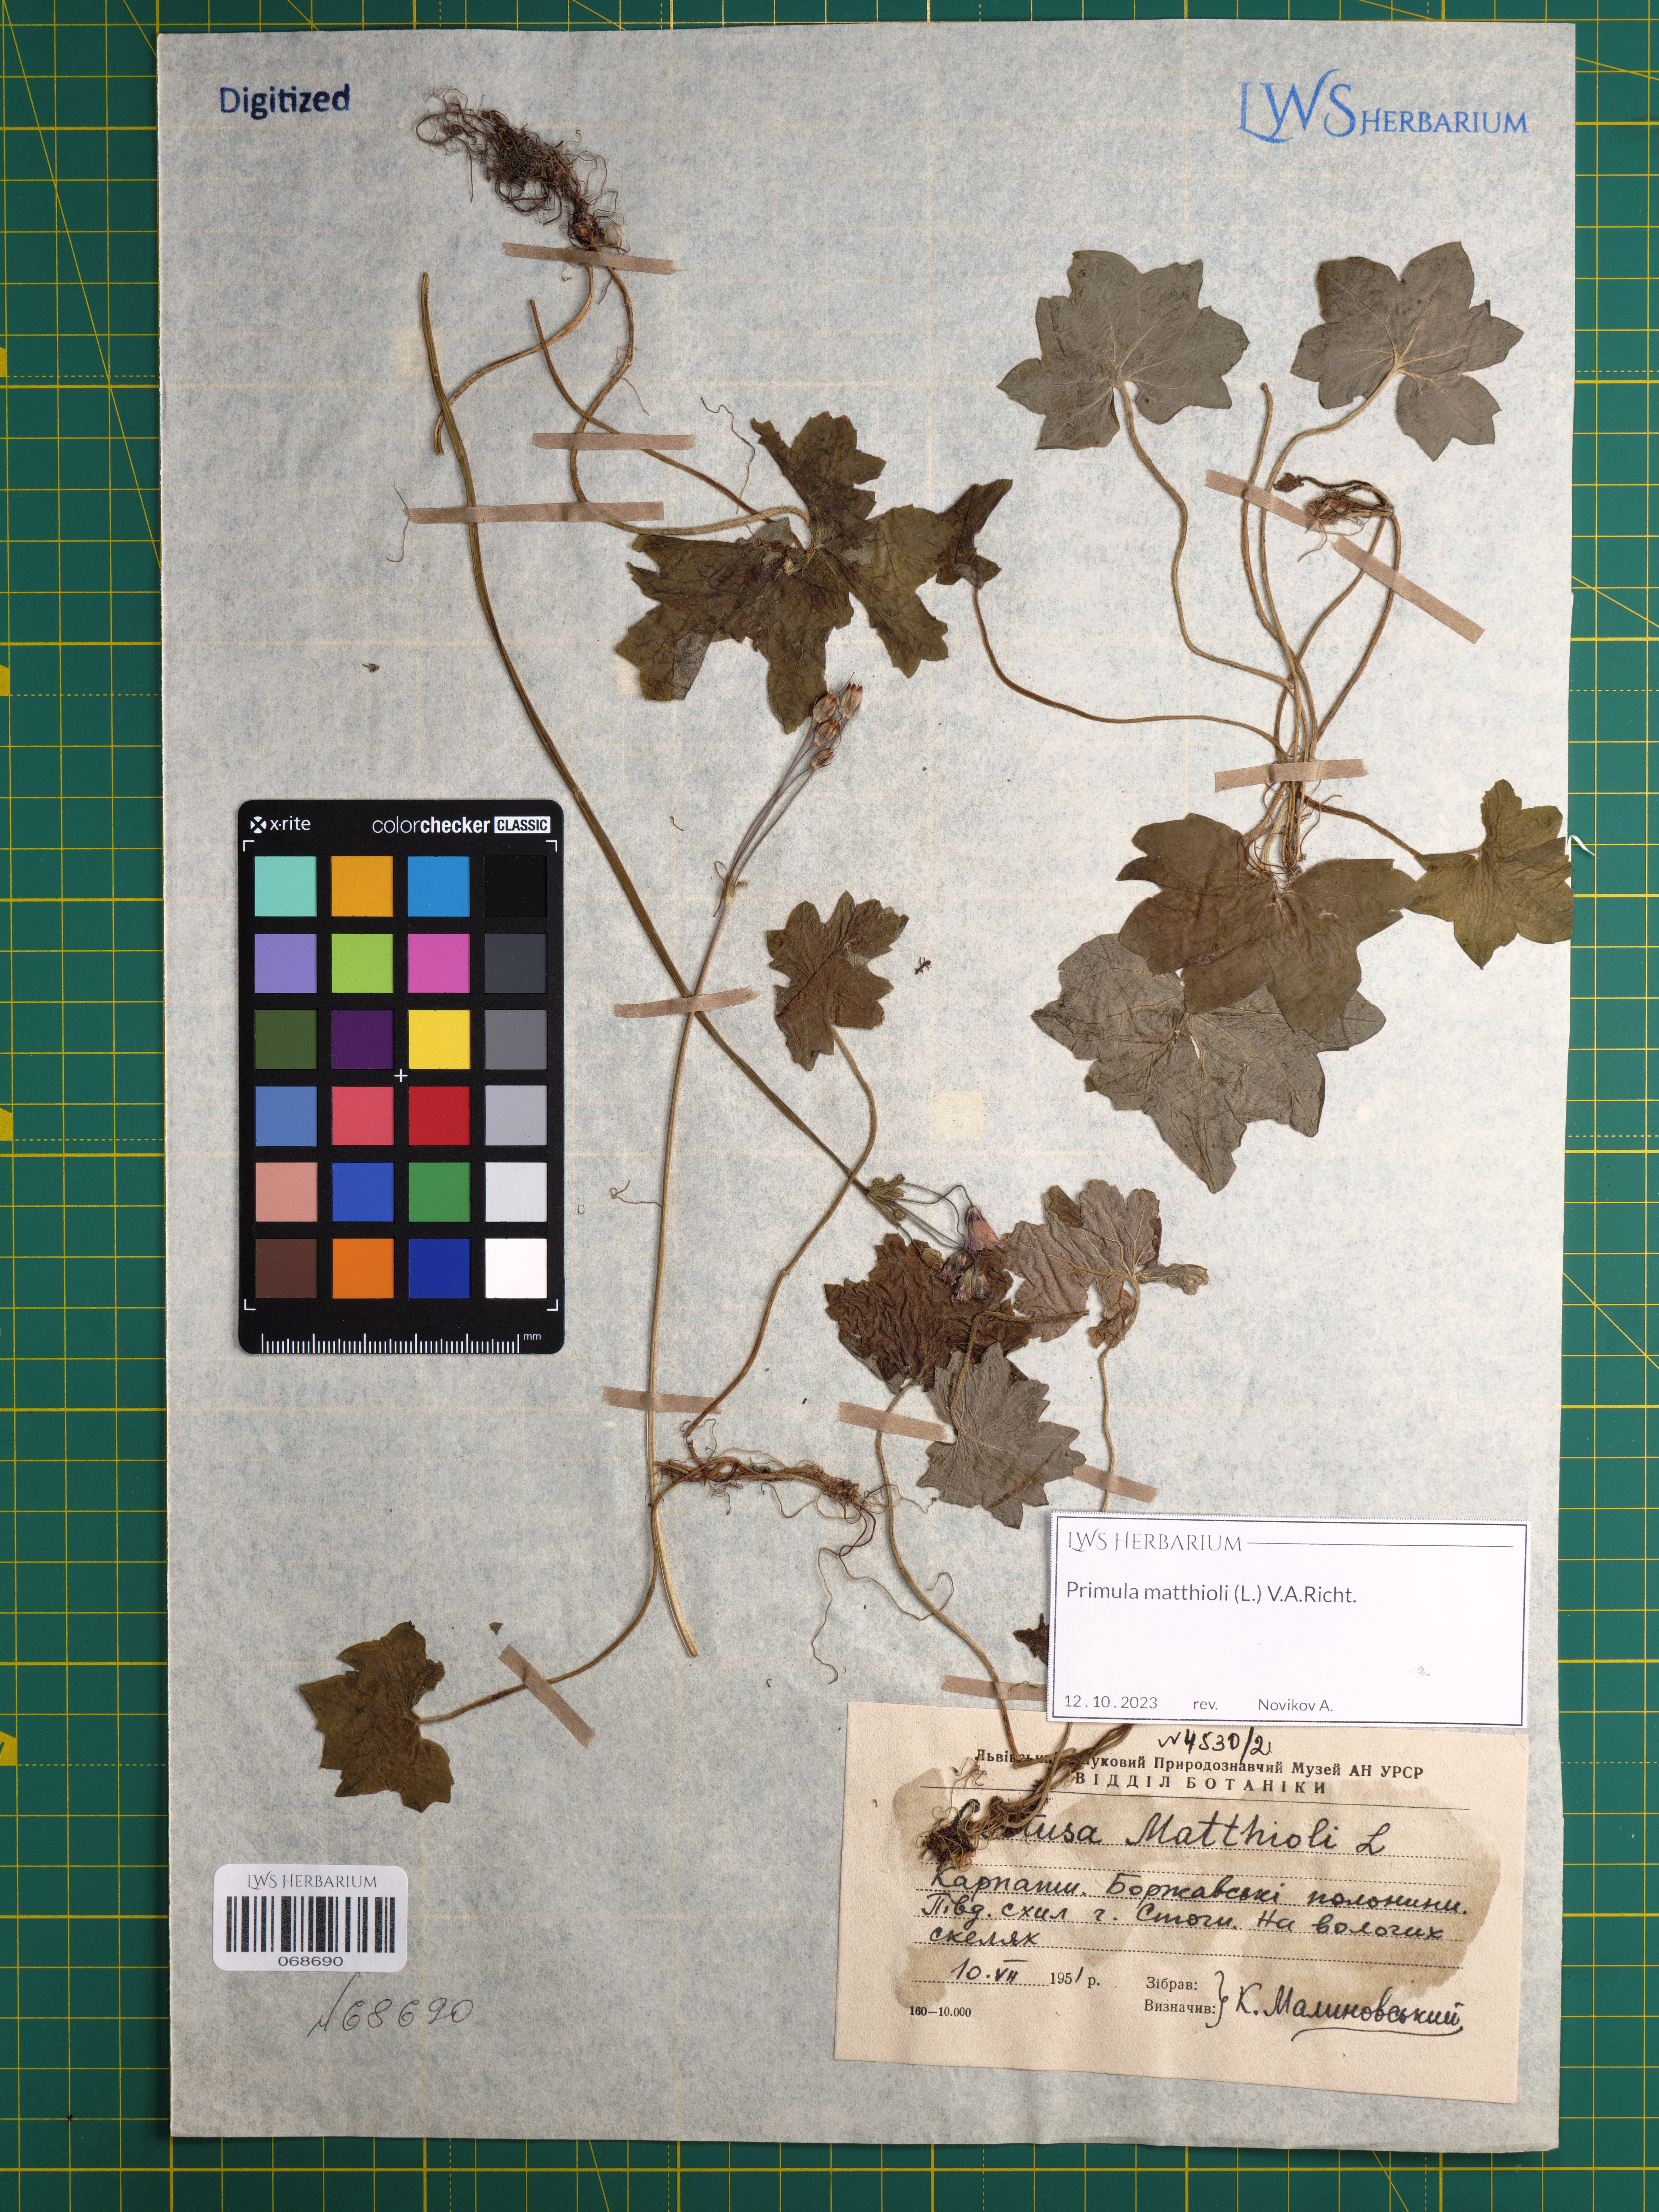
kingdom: Plantae
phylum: Tracheophyta
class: Magnoliopsida
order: Ericales
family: Primulaceae
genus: Primula
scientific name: Primula matthioli
